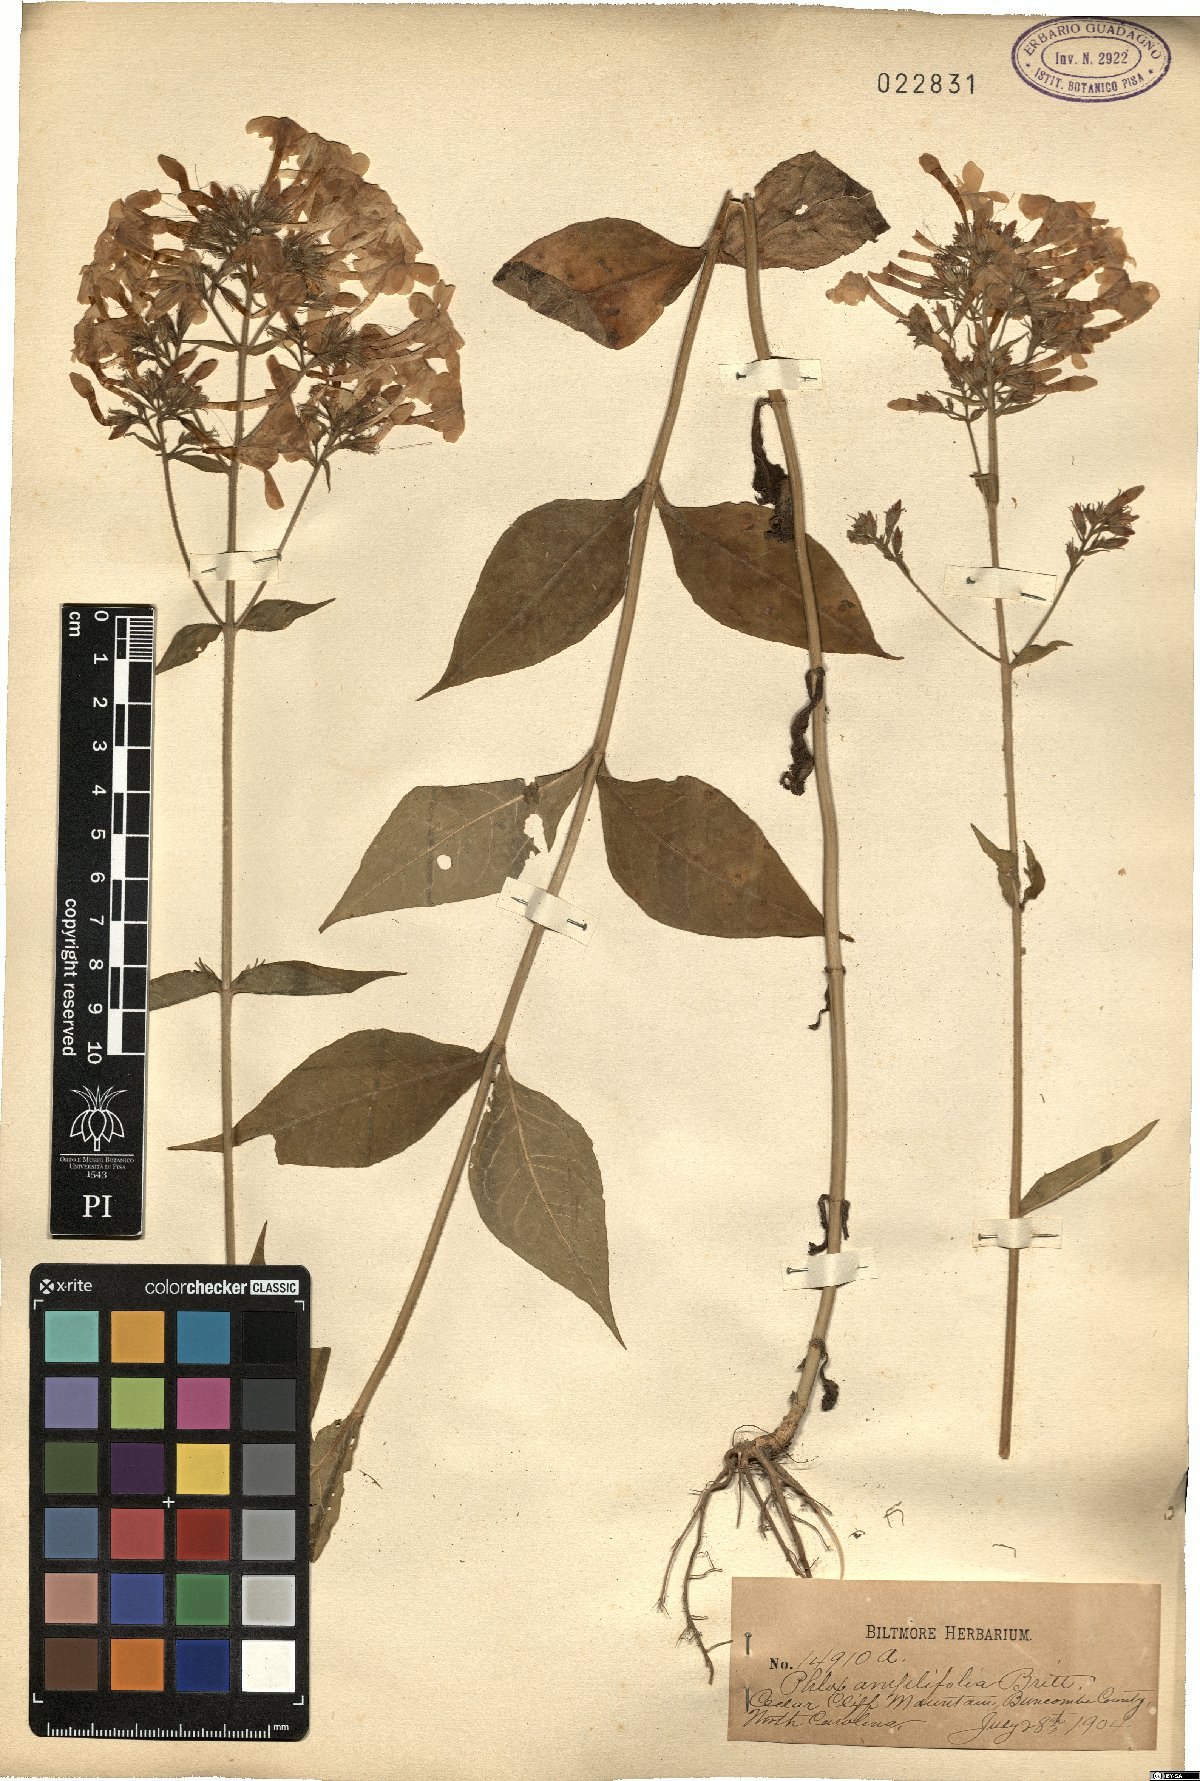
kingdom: Plantae
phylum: Tracheophyta
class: Magnoliopsida
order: Ericales
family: Polemoniaceae
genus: Phlox
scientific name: Phlox amplifolia
